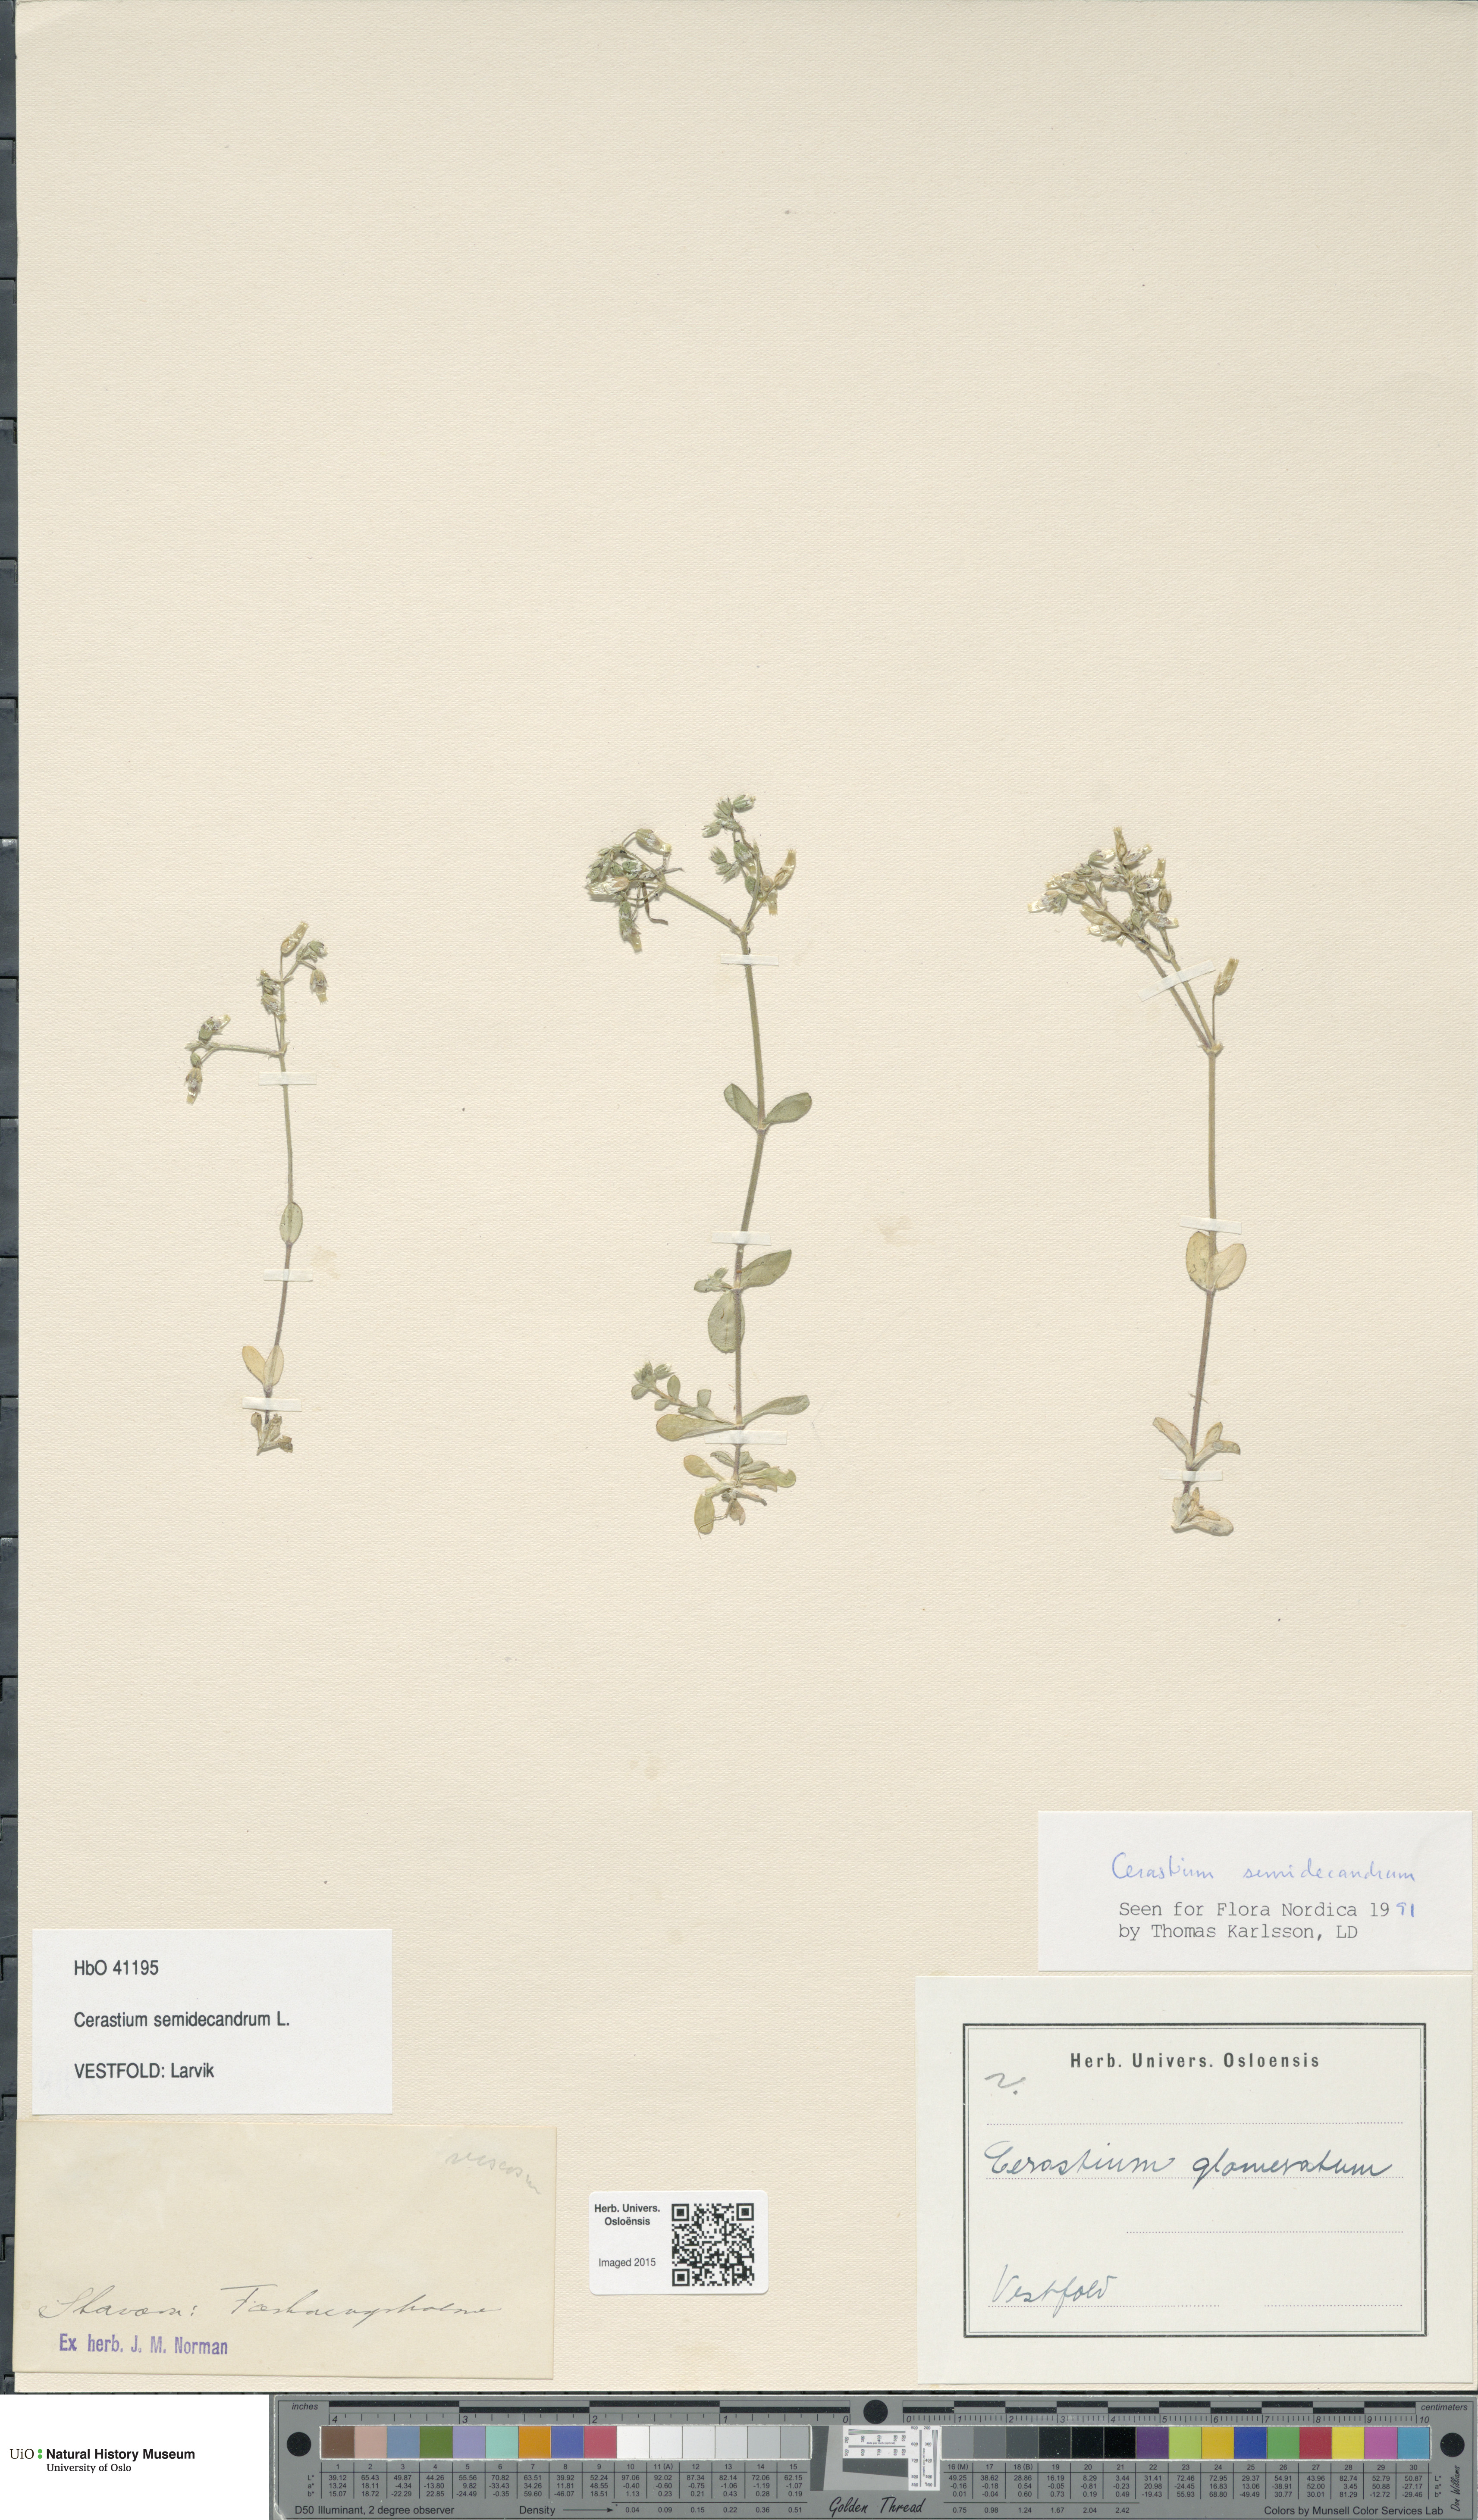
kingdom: Plantae
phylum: Tracheophyta
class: Magnoliopsida
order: Caryophyllales
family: Caryophyllaceae
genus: Cerastium
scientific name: Cerastium semidecandrum
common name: Little mouse-ear
